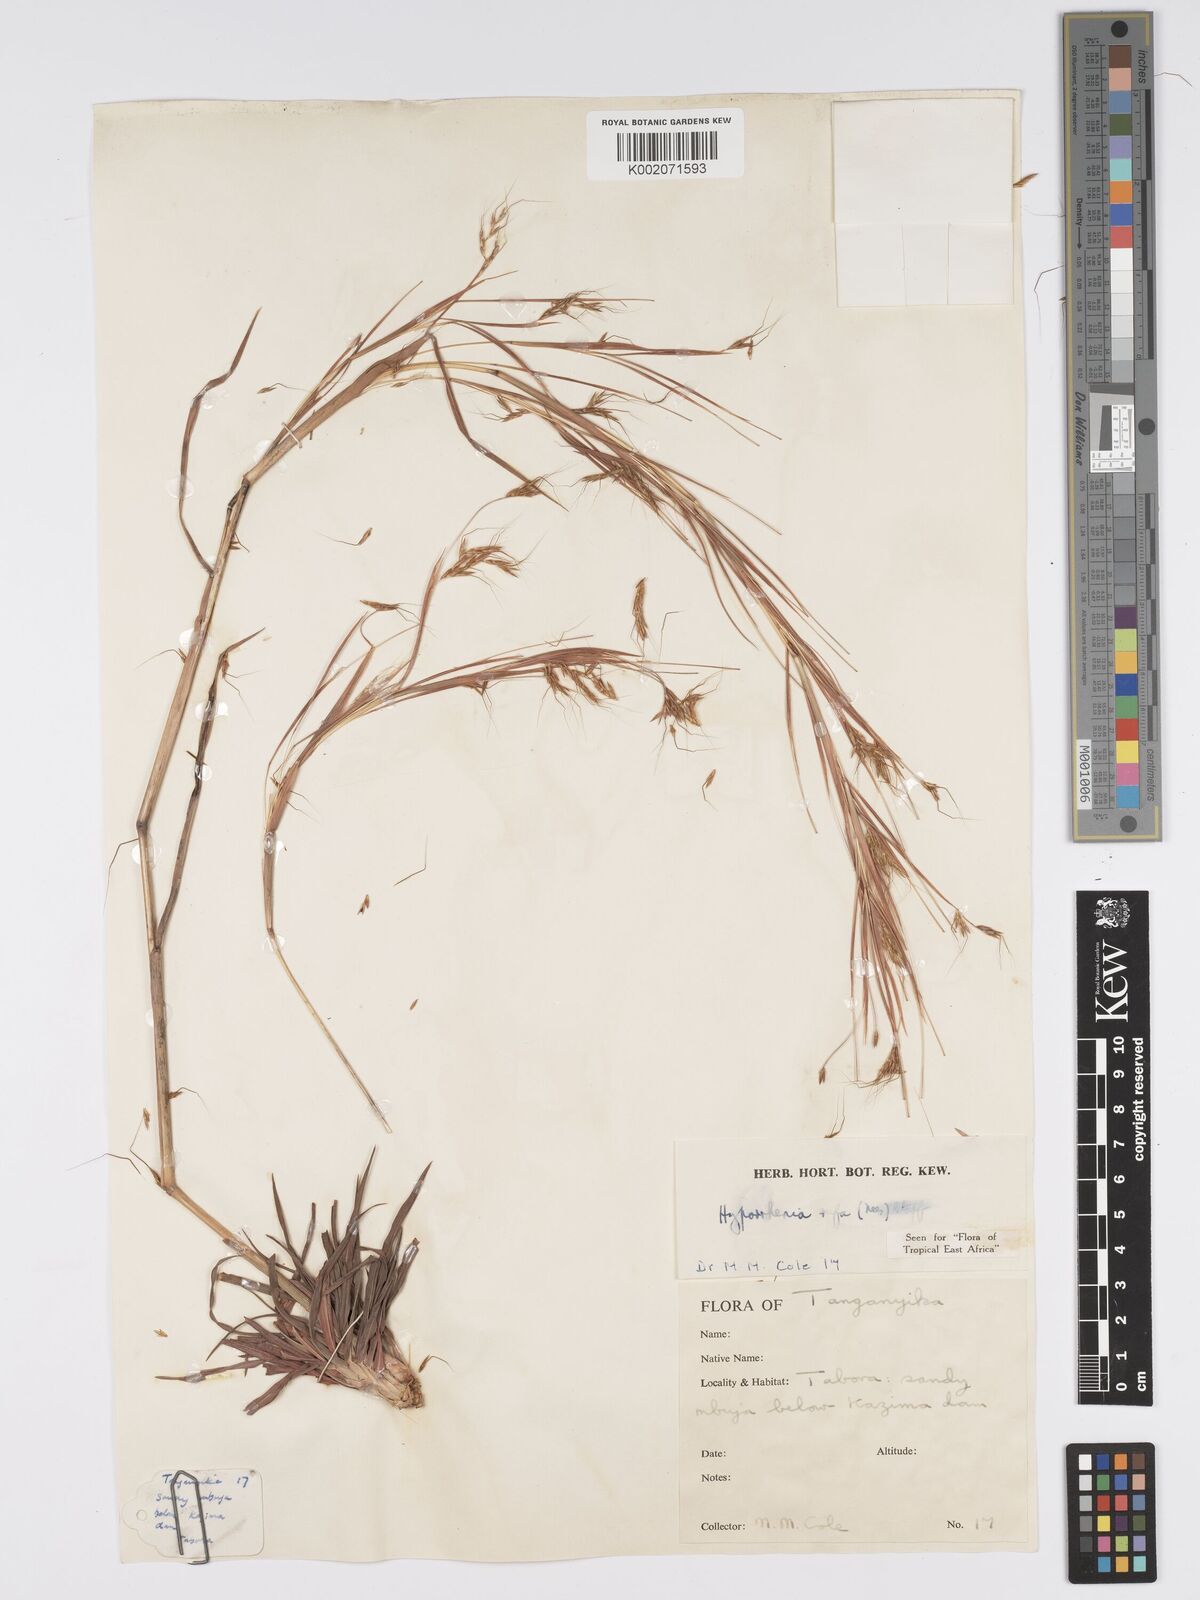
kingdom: Plantae
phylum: Tracheophyta
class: Liliopsida
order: Poales
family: Poaceae
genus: Hyparrhenia
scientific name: Hyparrhenia rufa
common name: Jaraguagrass
